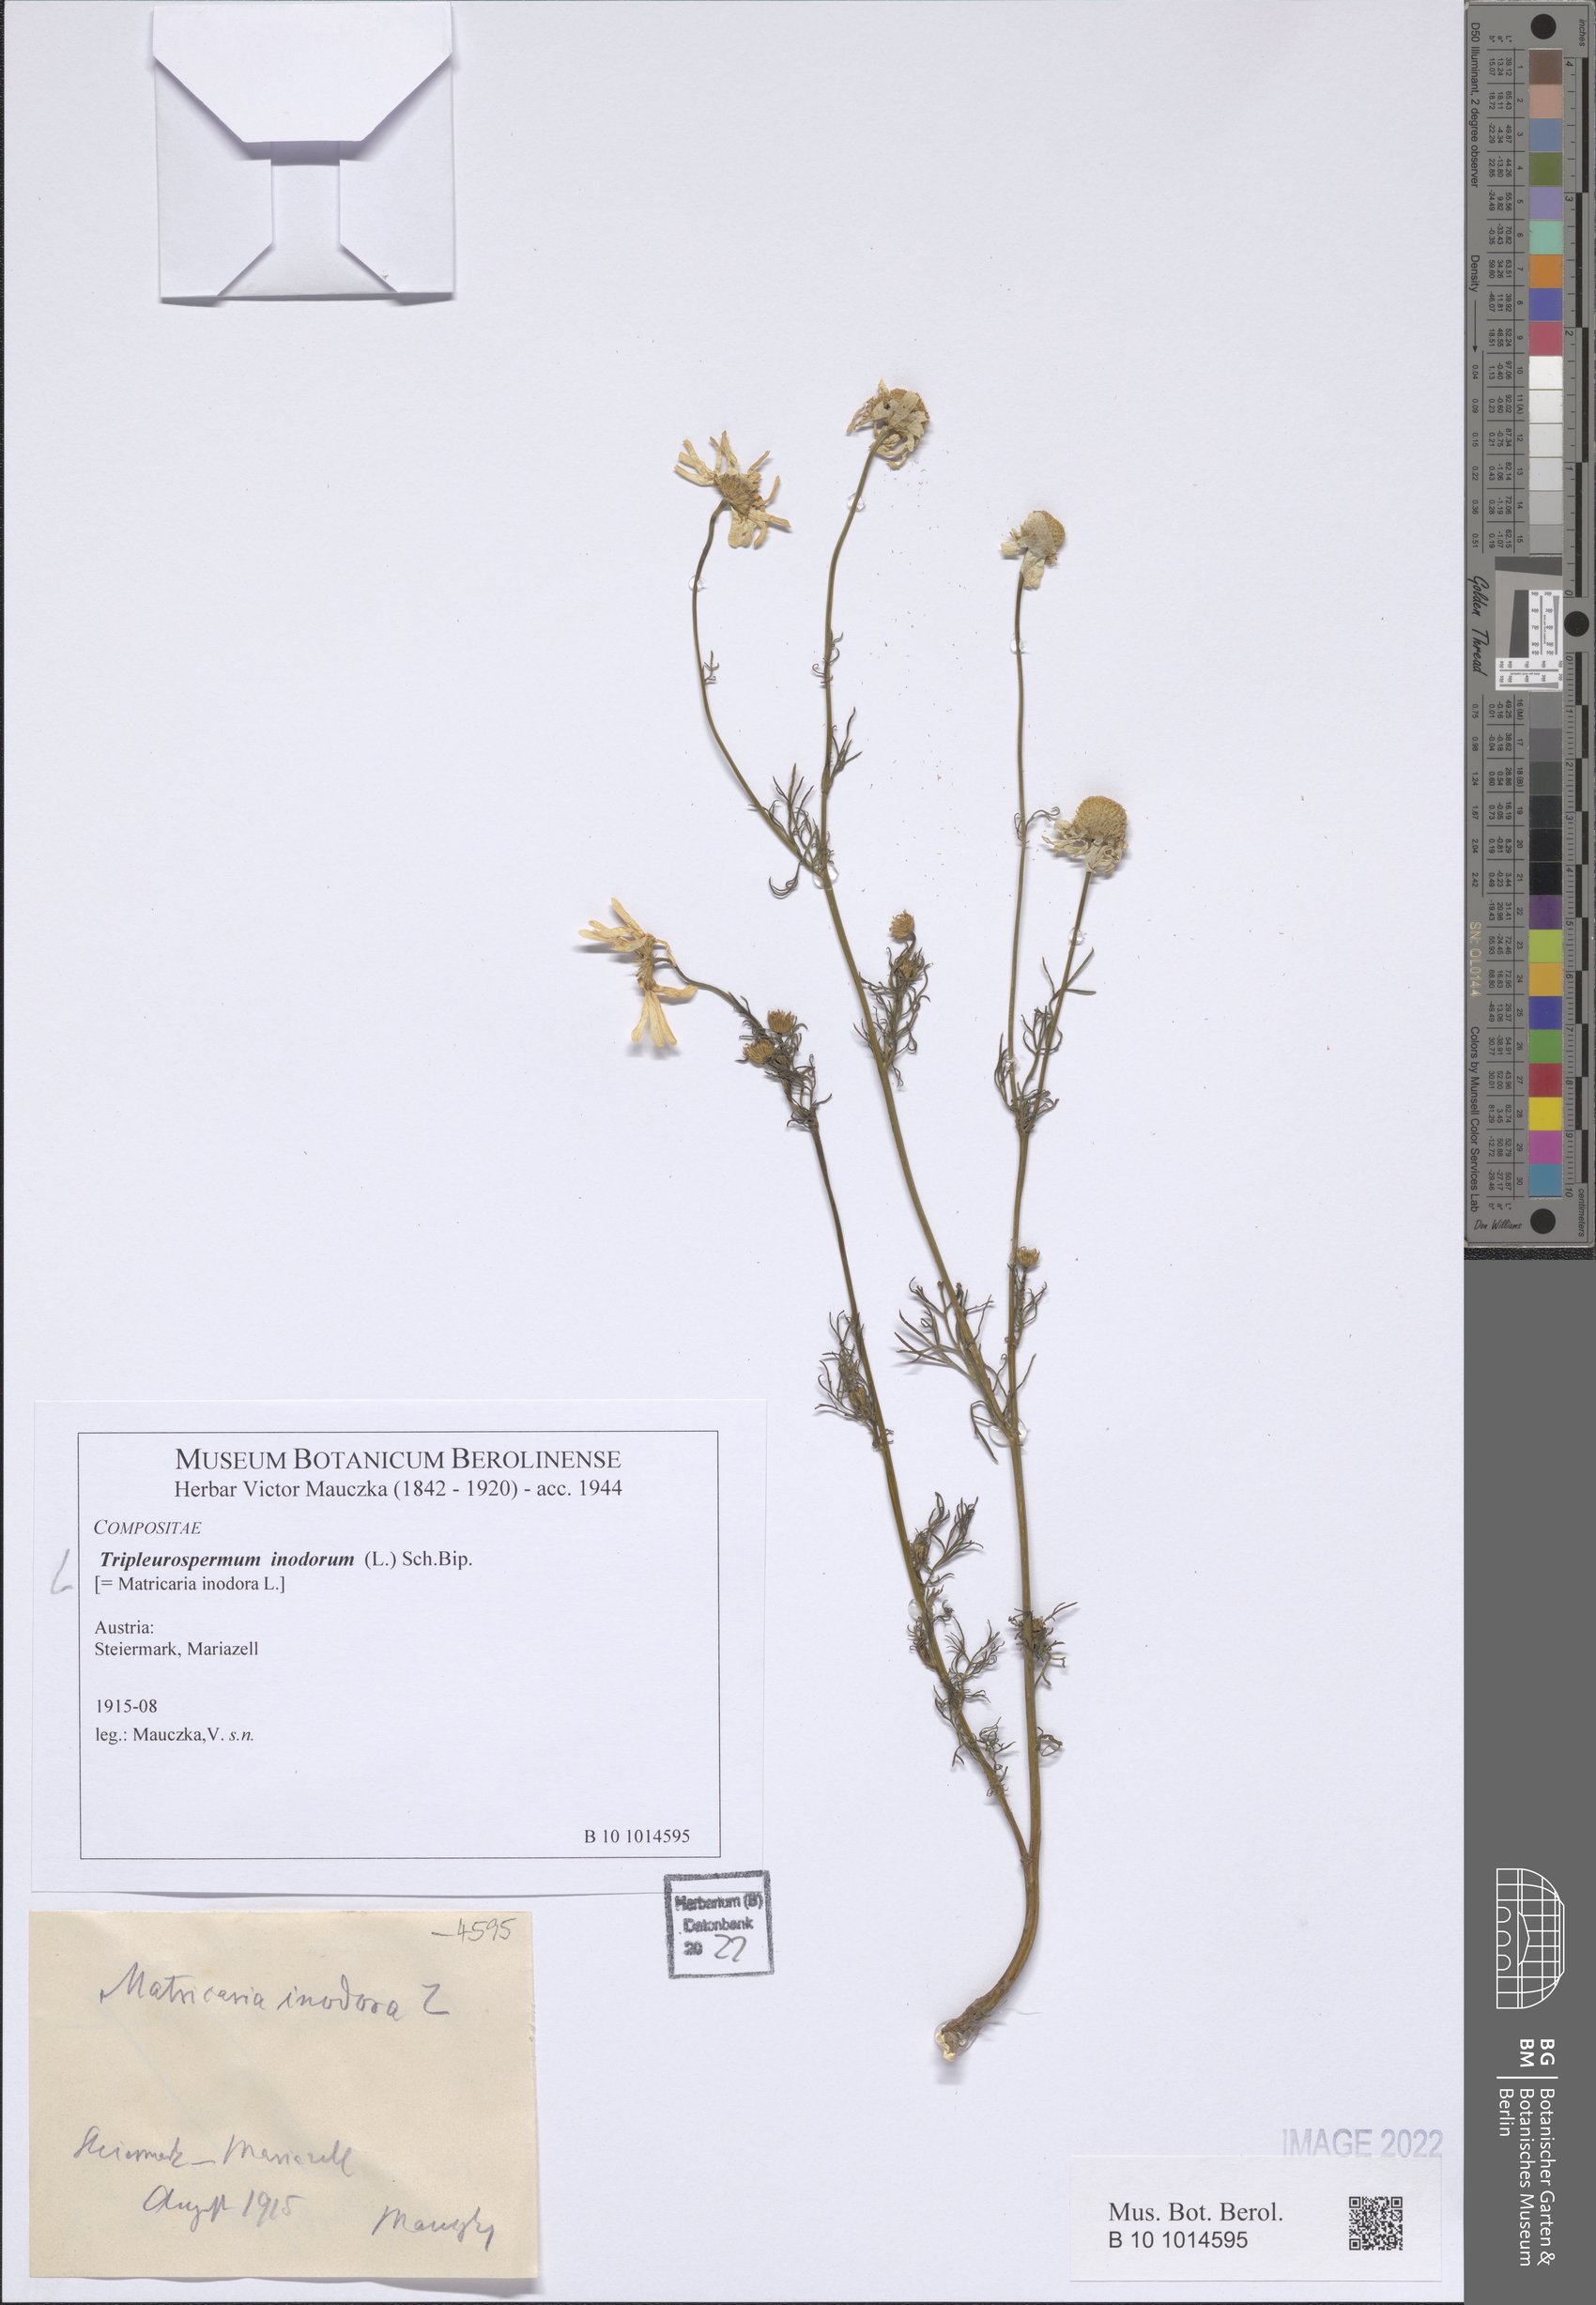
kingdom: Plantae
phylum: Tracheophyta
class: Magnoliopsida
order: Asterales
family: Asteraceae
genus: Tripleurospermum
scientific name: Tripleurospermum inodorum
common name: Scentless mayweed
